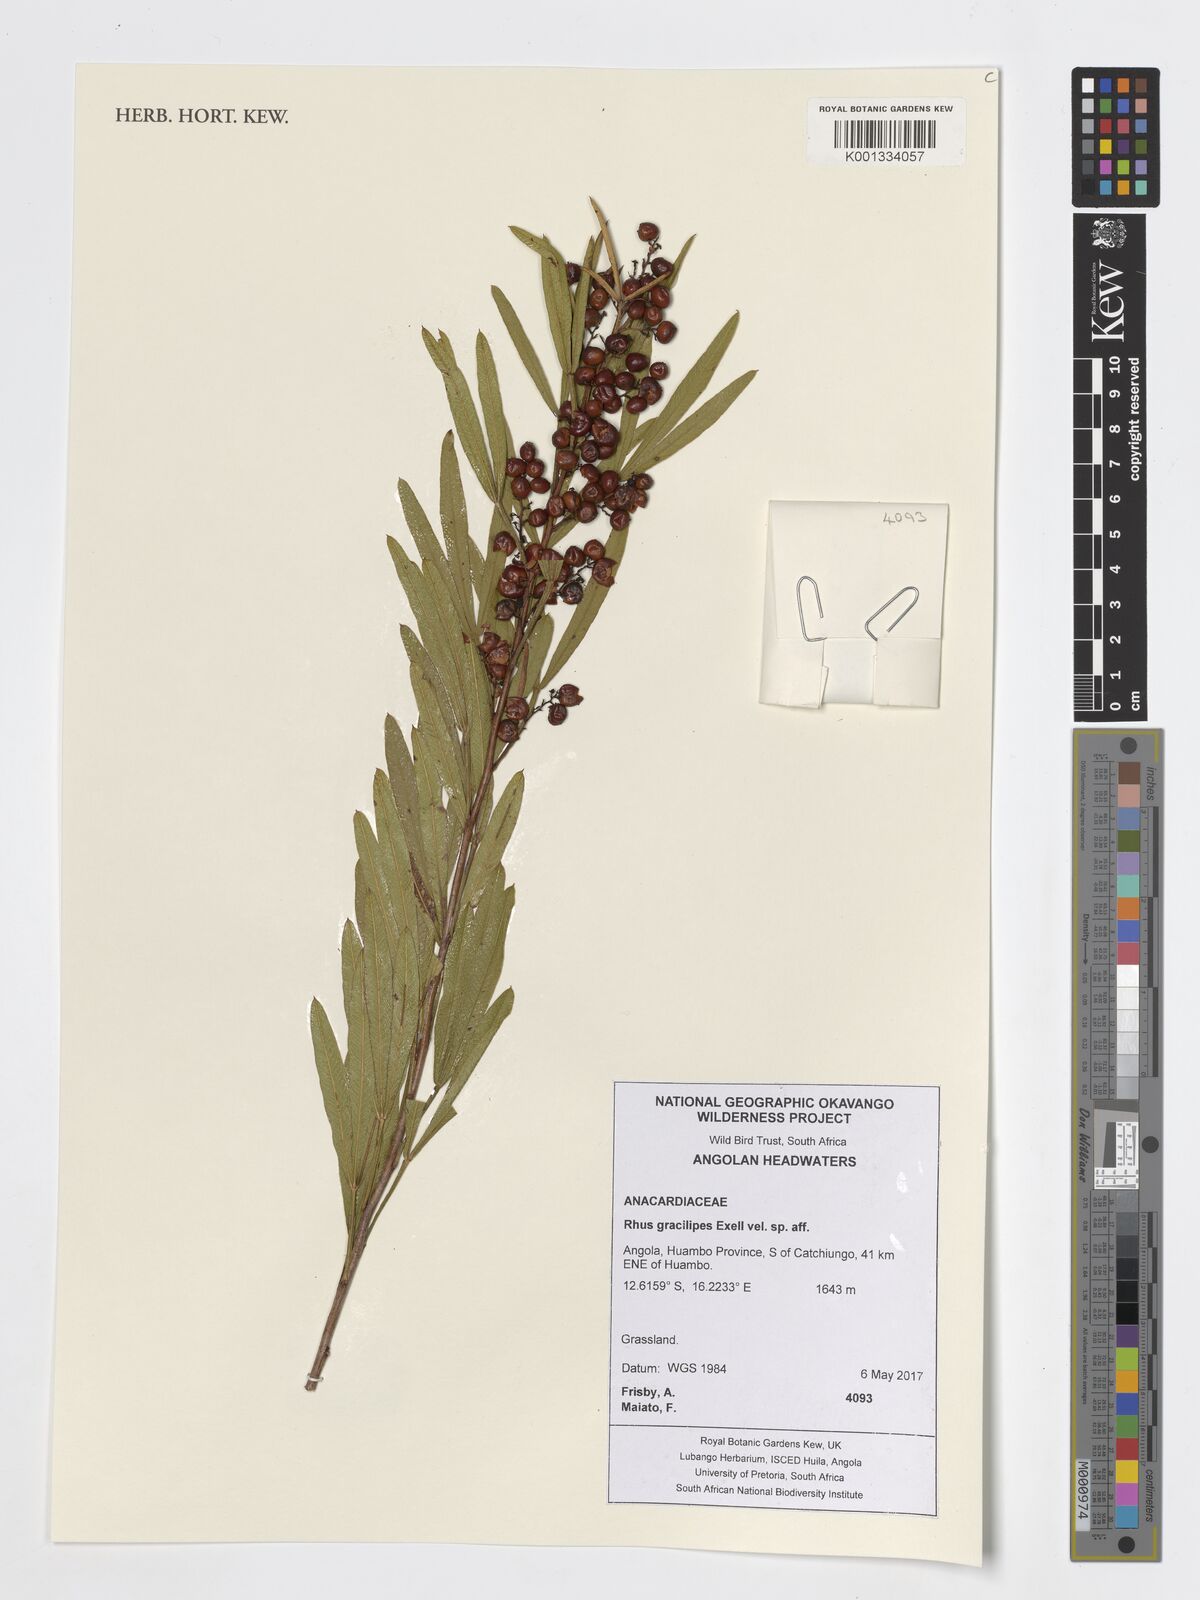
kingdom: Plantae
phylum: Tracheophyta
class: Magnoliopsida
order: Sapindales
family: Anacardiaceae
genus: Searsia
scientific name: Searsia gracilipes
